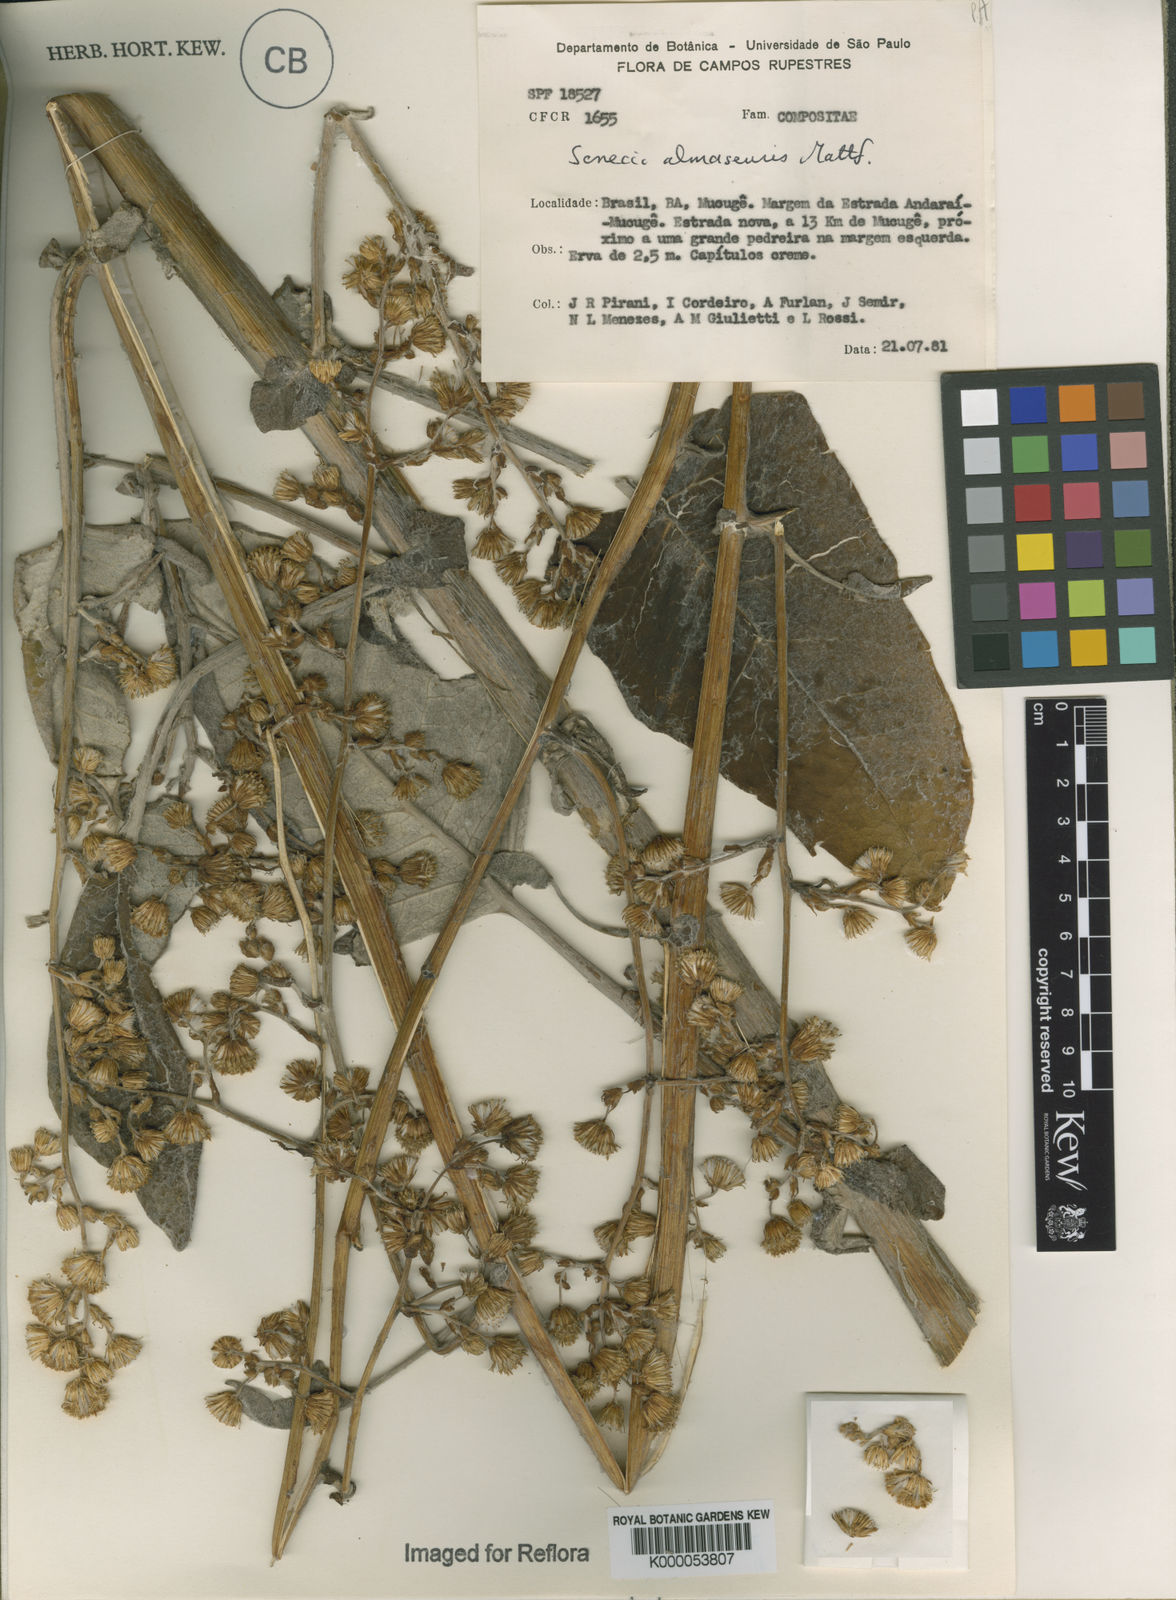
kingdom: Plantae
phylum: Tracheophyta
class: Magnoliopsida
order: Asterales
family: Asteraceae
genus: Senecio
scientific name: Senecio almasensis
